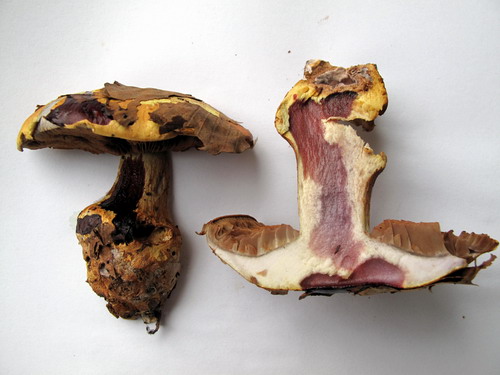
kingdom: Fungi
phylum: Basidiomycota
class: Agaricomycetes
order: Agaricales
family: Cortinariaceae
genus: Cortinarius
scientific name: Cortinarius bergeronii
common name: prægtig slørhat
